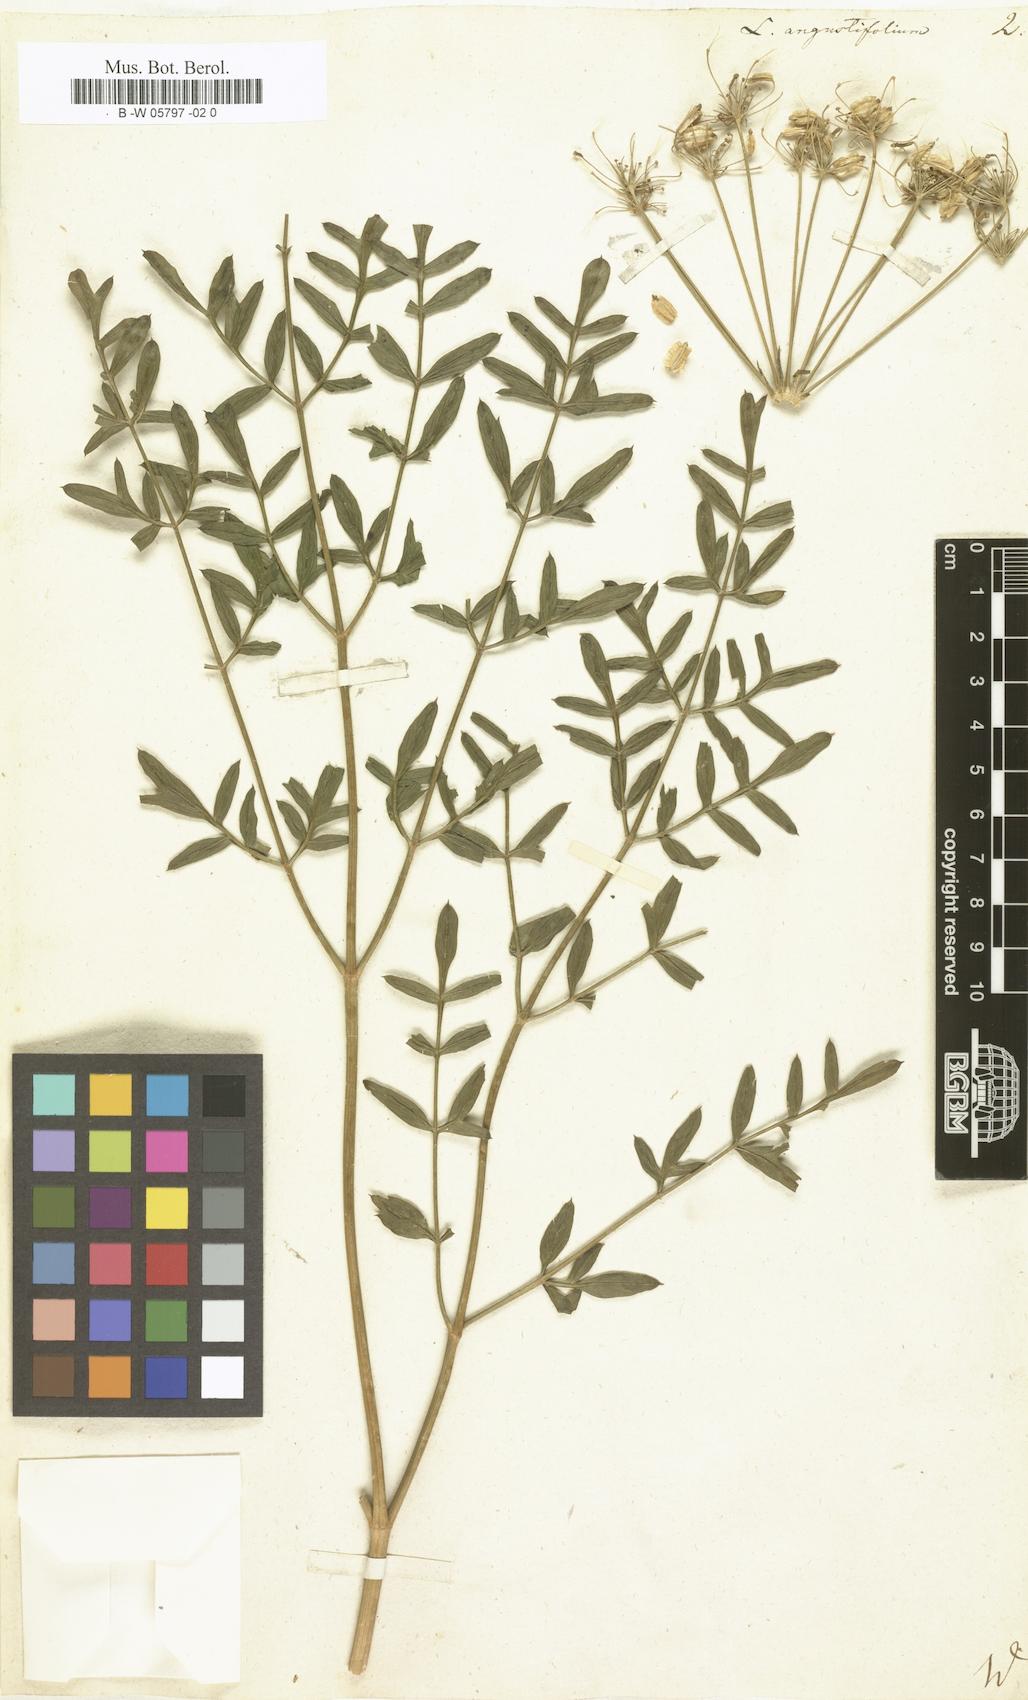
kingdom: Plantae
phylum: Tracheophyta
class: Magnoliopsida
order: Apiales
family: Apiaceae
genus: Laserpitium
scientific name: Laserpitium
